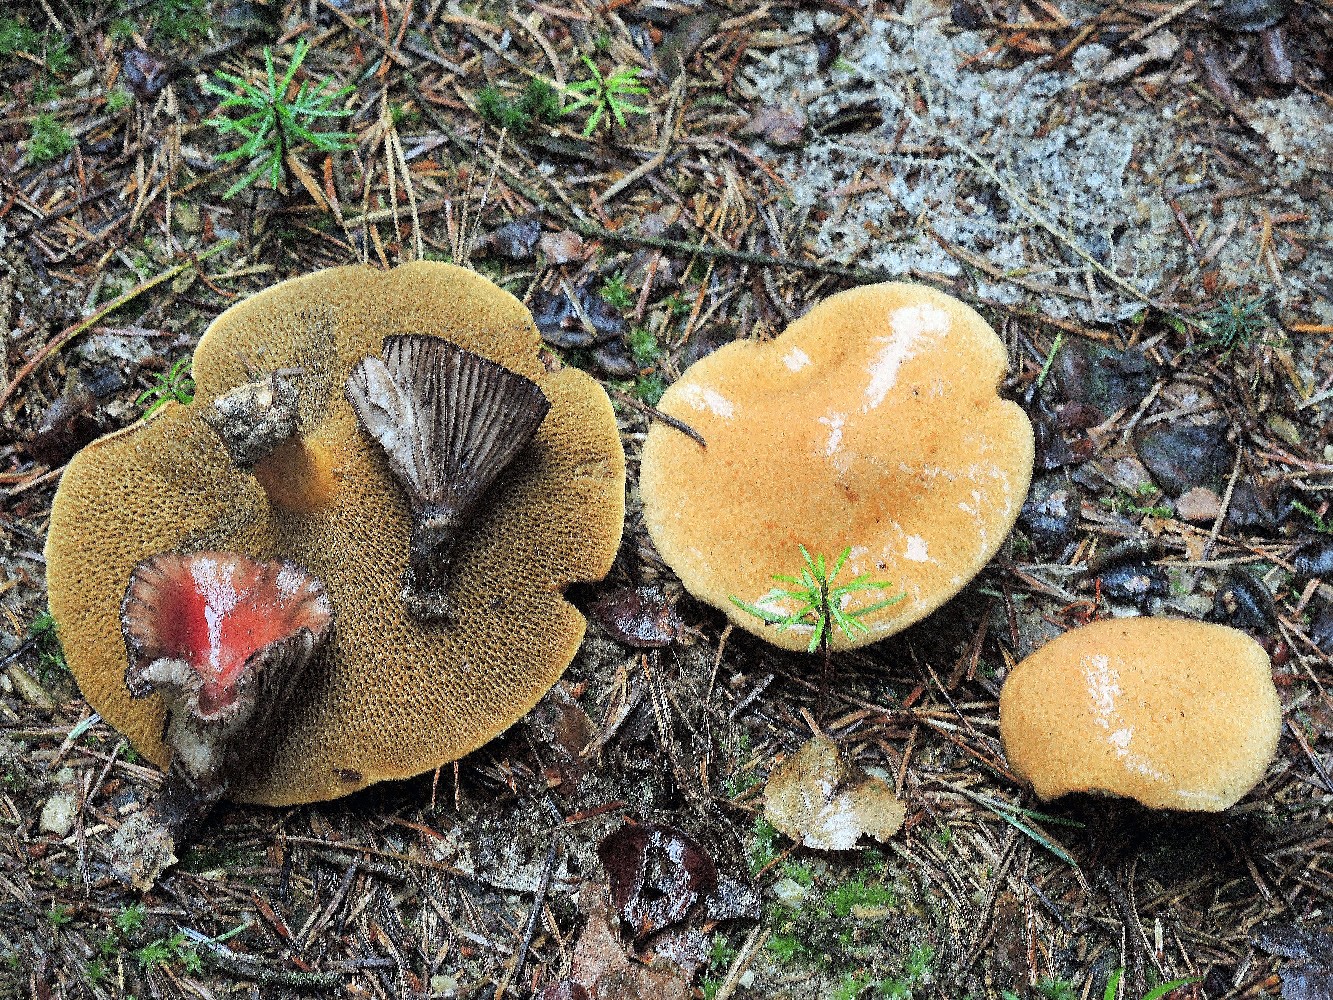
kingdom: Fungi
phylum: Basidiomycota
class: Agaricomycetes
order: Boletales
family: Gomphidiaceae
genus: Gomphidius
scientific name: Gomphidius roseus
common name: rosenrød slimslør
